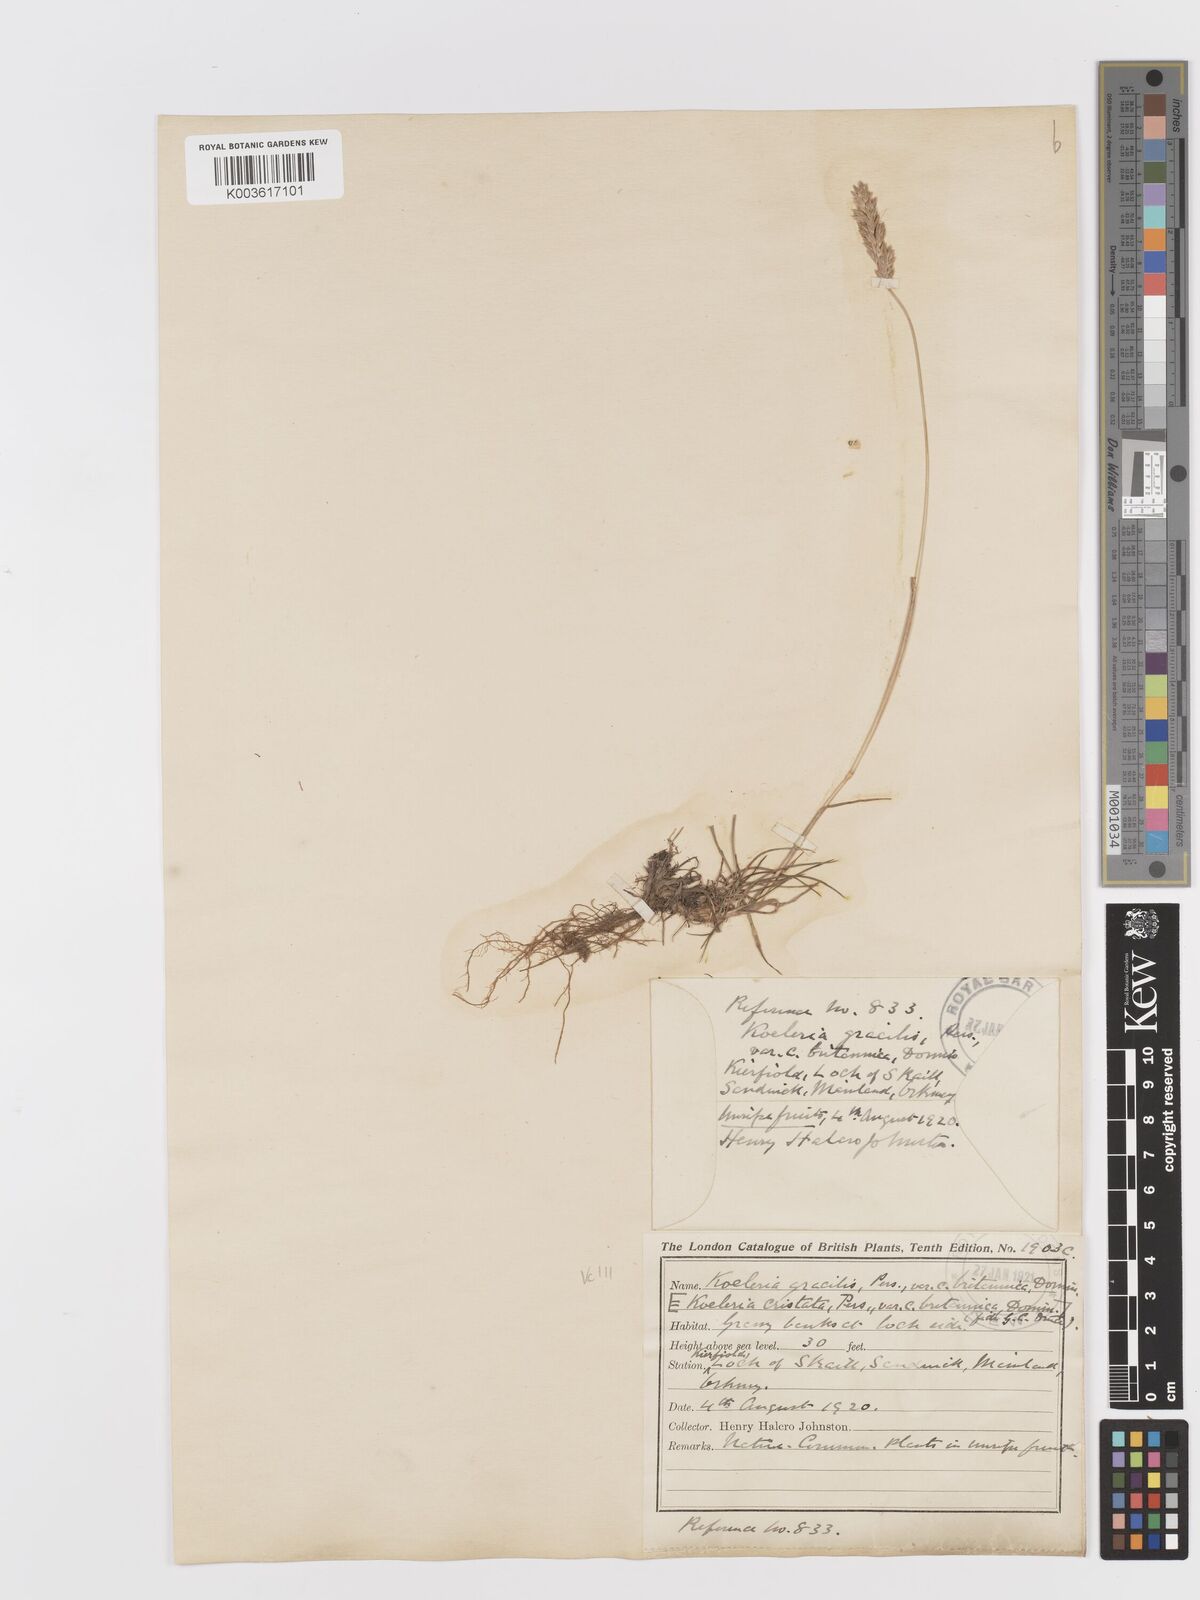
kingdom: Plantae
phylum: Tracheophyta
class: Liliopsida
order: Poales
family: Poaceae
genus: Koeleria
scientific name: Koeleria macrantha
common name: Crested hair-grass
